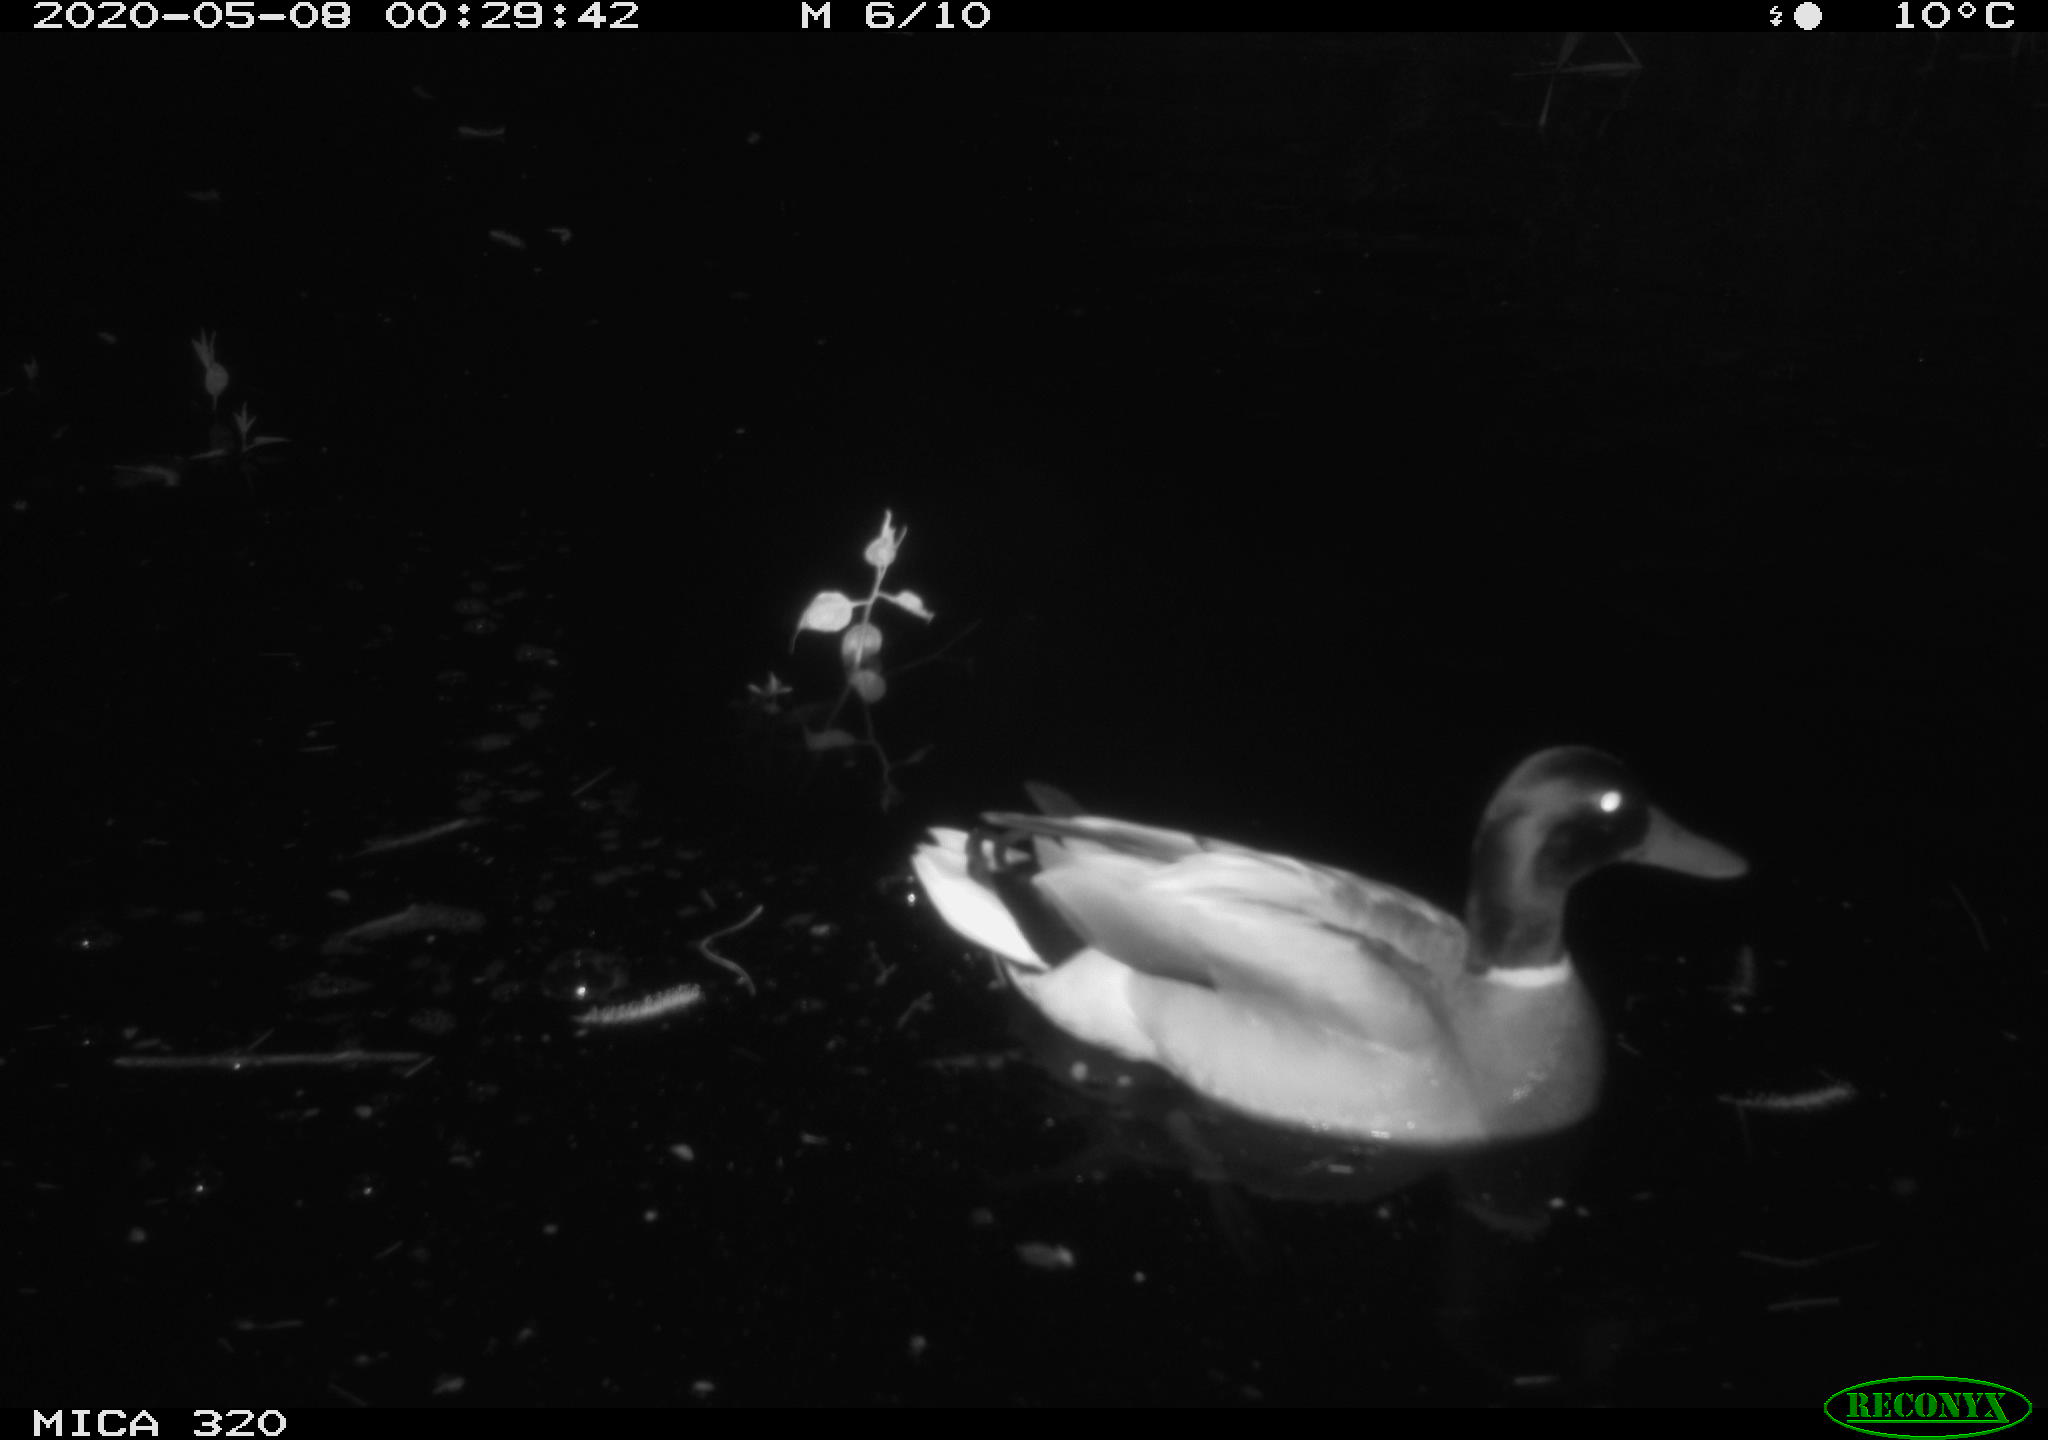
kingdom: Animalia
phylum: Chordata
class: Aves
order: Anseriformes
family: Anatidae
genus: Anas
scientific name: Anas platyrhynchos
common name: Mallard
